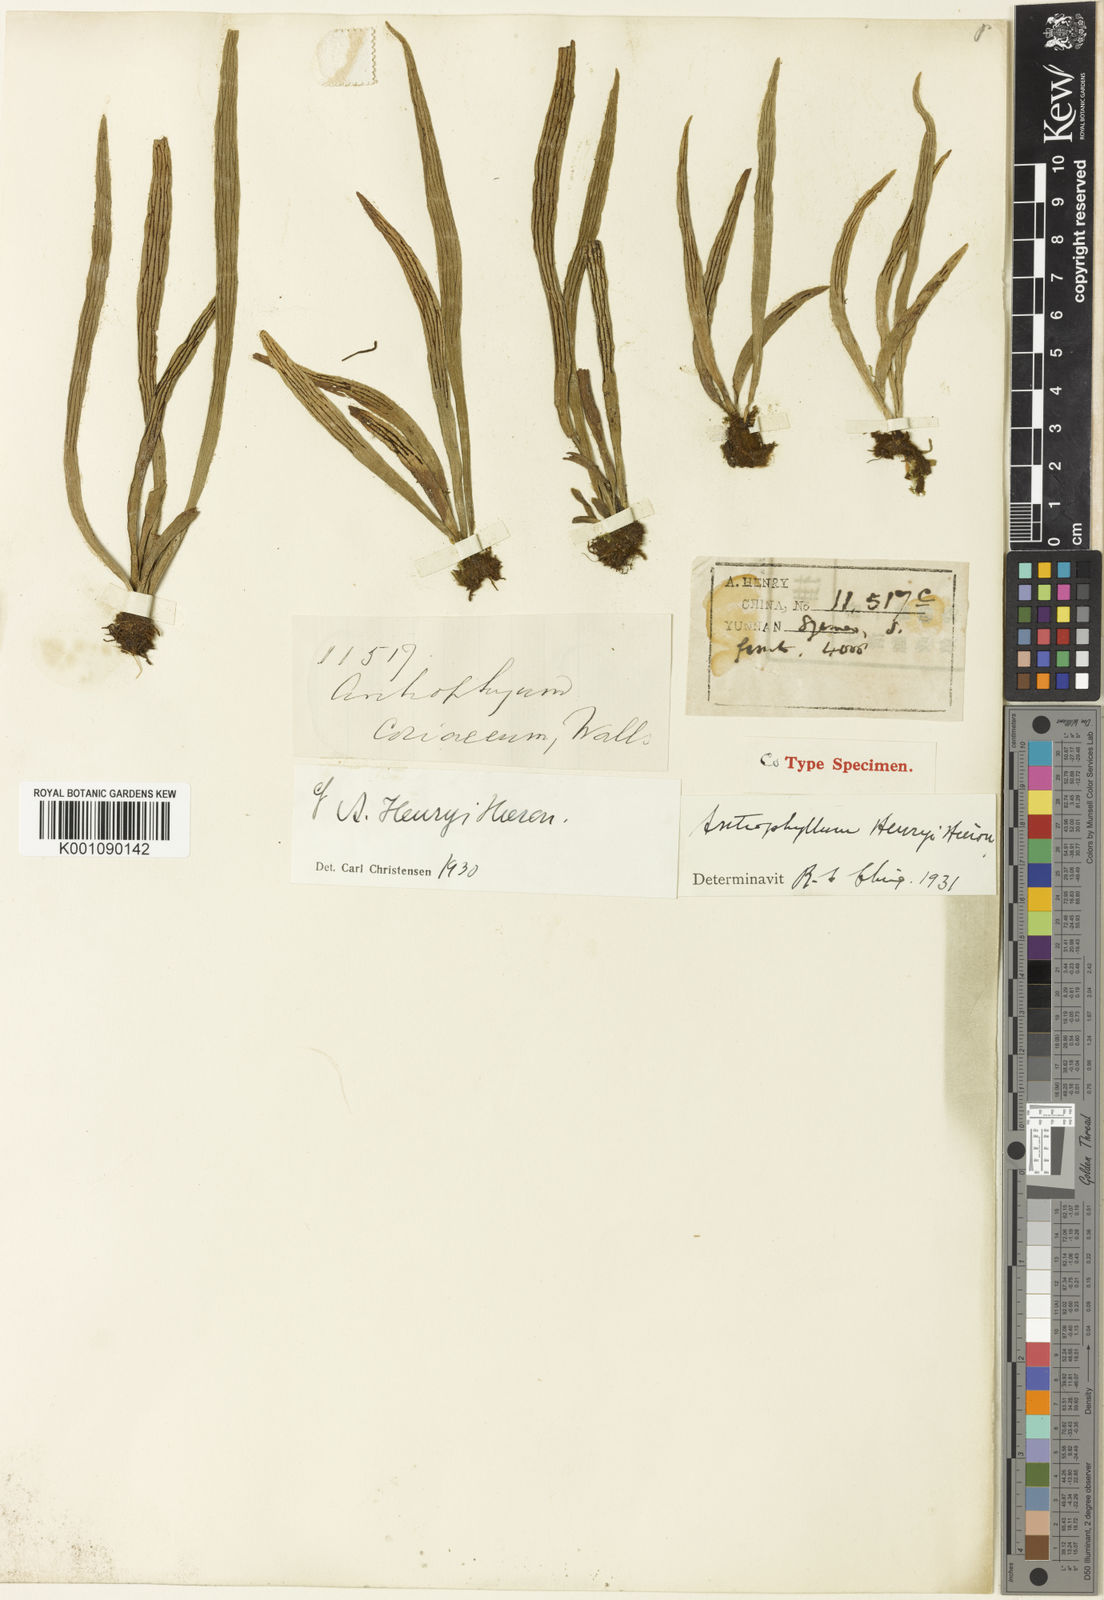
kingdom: Plantae
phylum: Tracheophyta
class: Polypodiopsida
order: Polypodiales
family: Pteridaceae
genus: Antrophyum
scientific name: Antrophyum henryi
